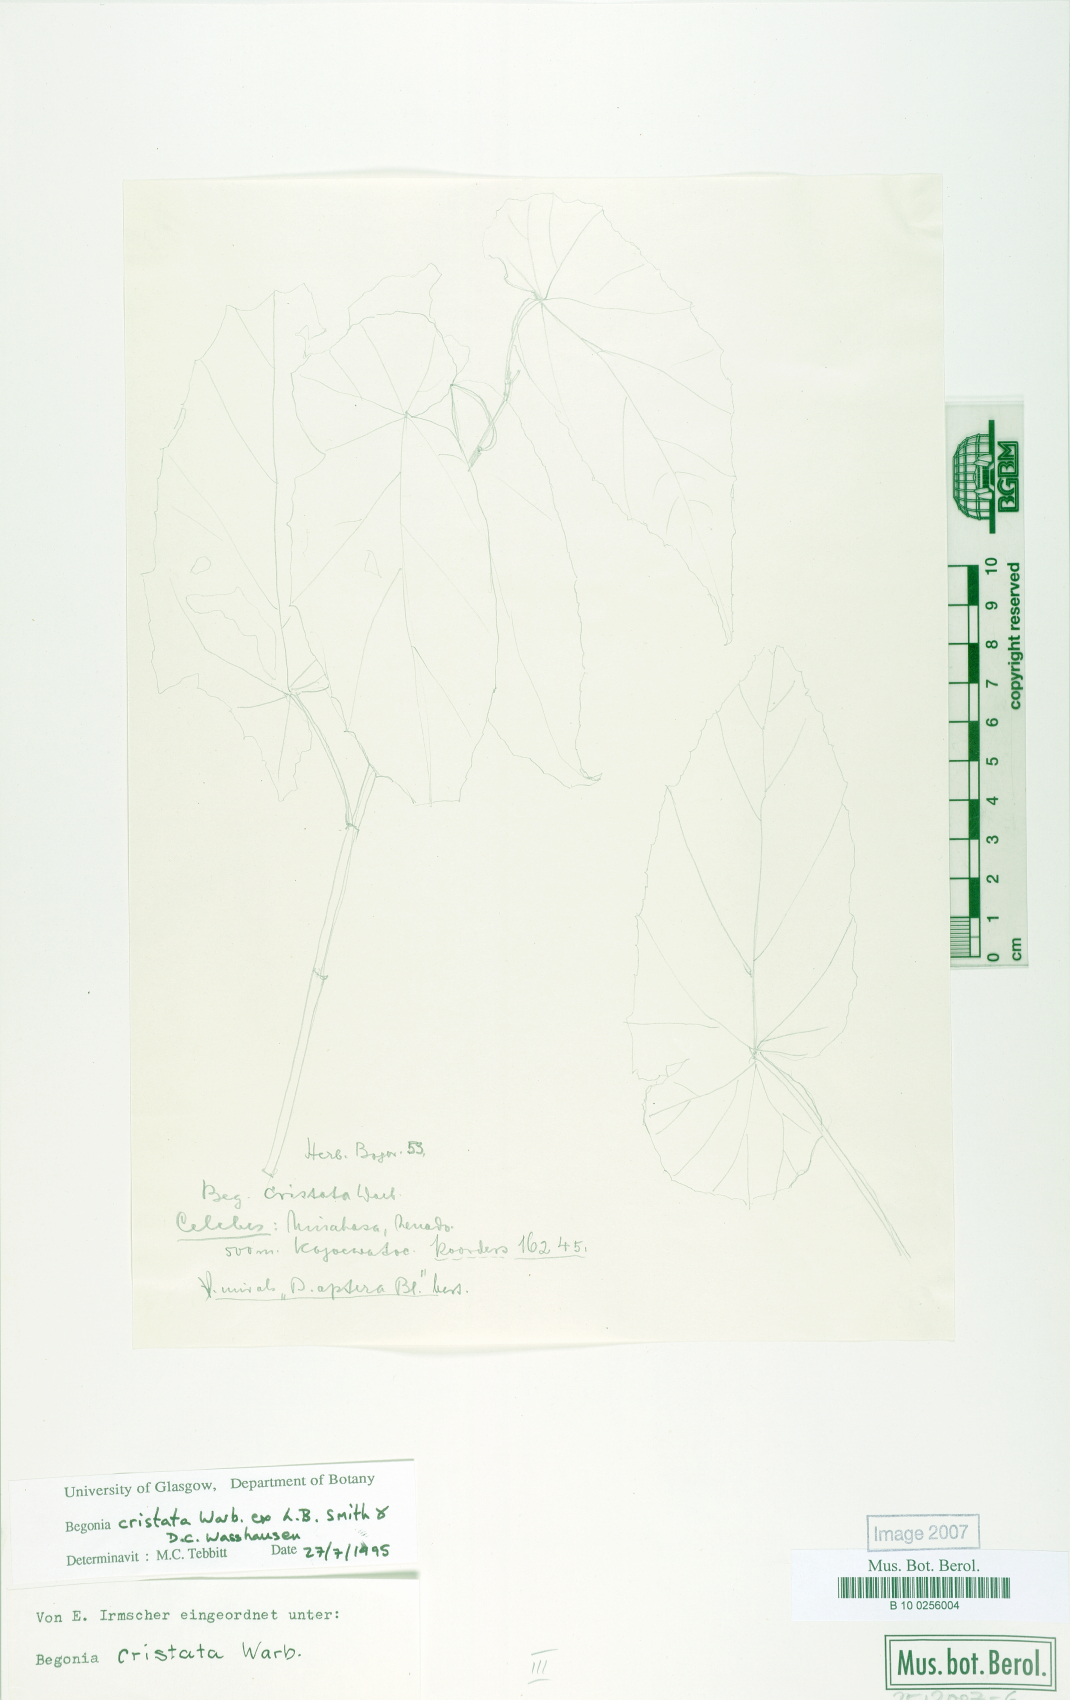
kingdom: Plantae
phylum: Tracheophyta
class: Magnoliopsida
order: Cucurbitales
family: Begoniaceae
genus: Begonia
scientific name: Begonia aptera
